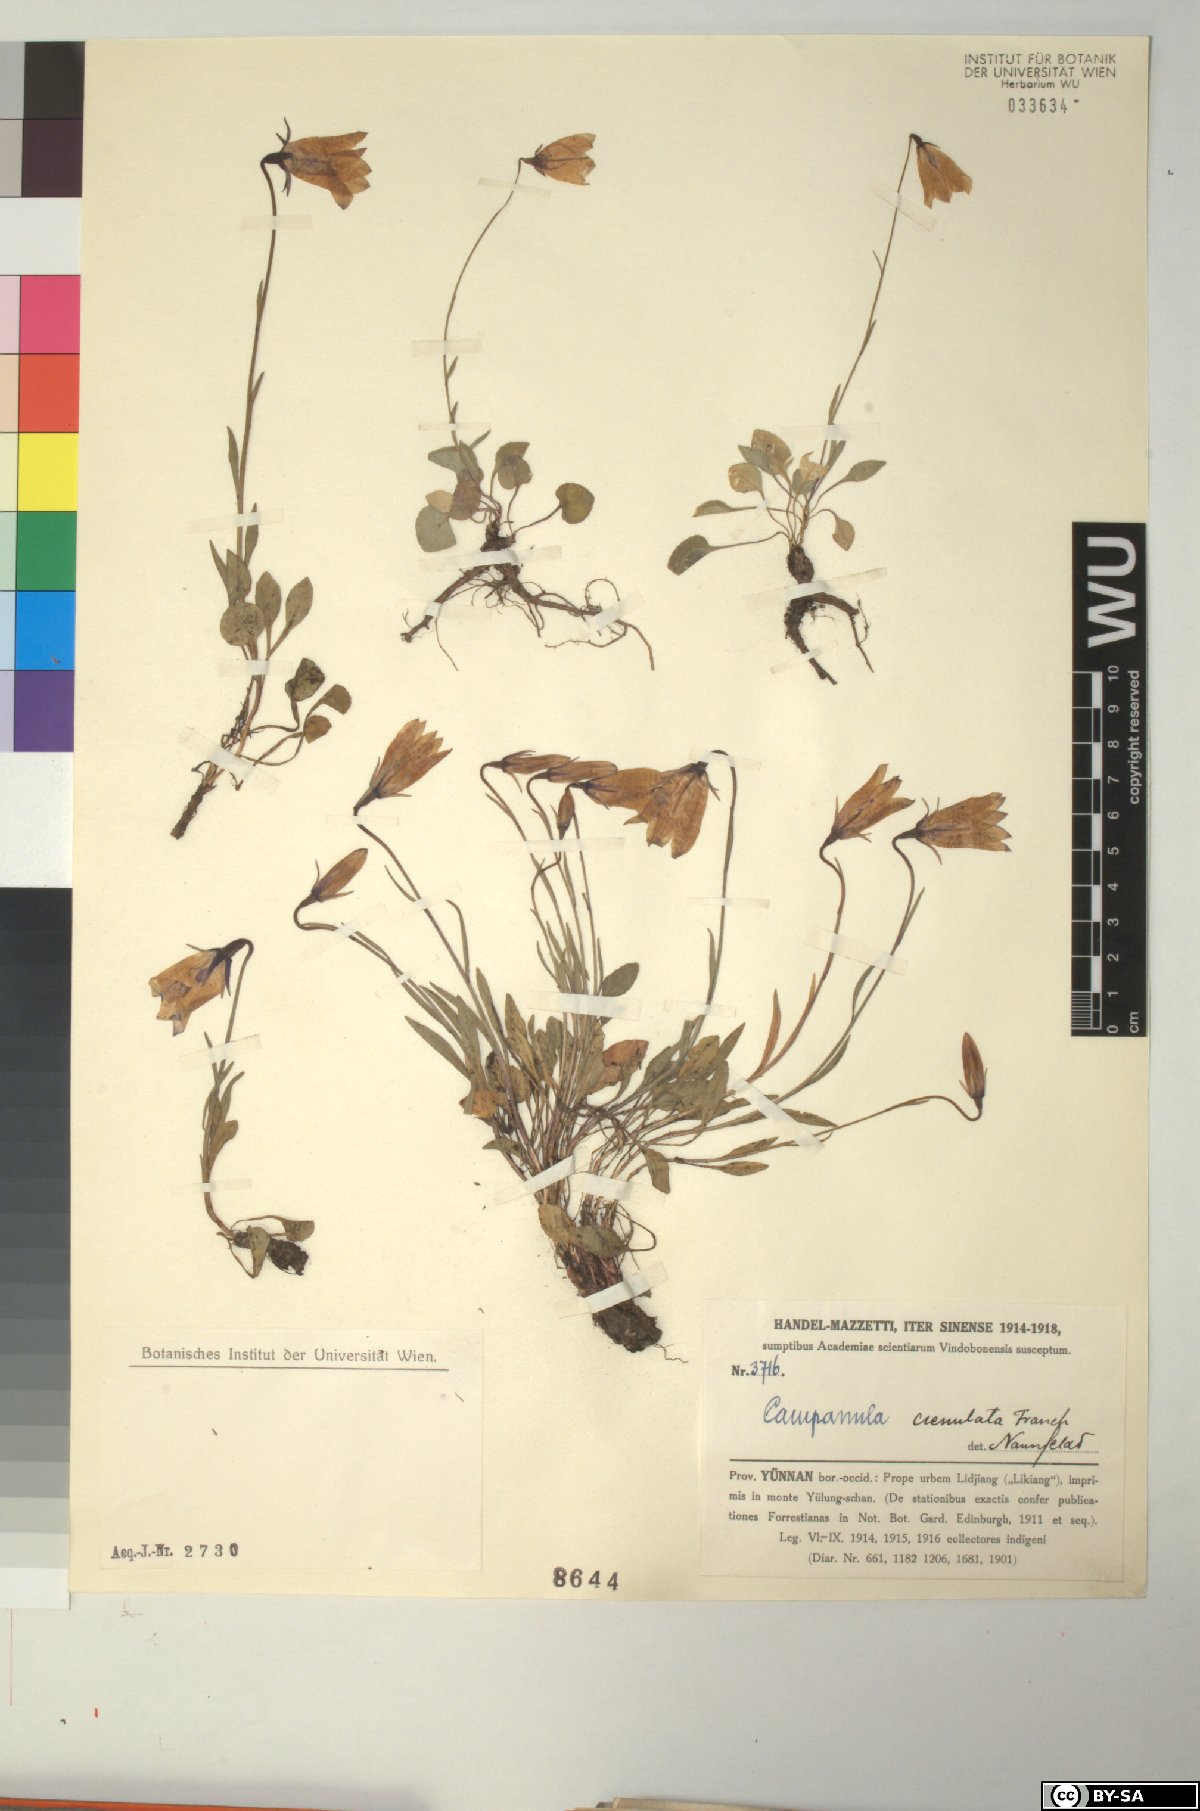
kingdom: Plantae
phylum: Tracheophyta
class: Magnoliopsida
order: Asterales
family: Campanulaceae
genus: Campanula
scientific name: Campanula crenulata
